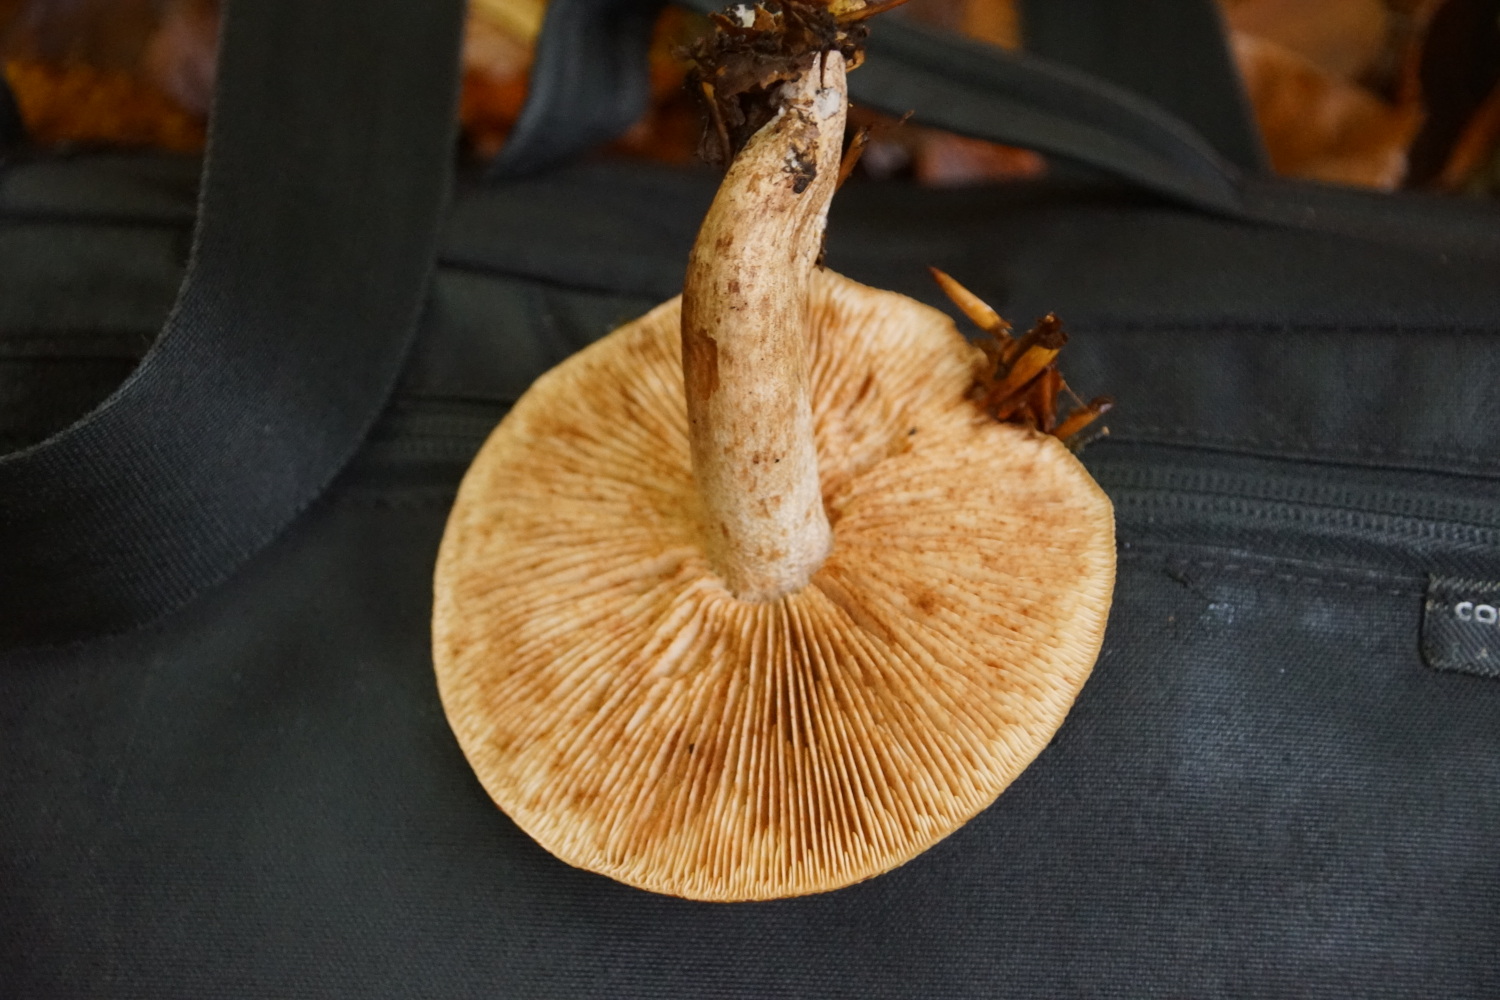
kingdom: Fungi
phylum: Basidiomycota
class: Agaricomycetes
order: Agaricales
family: Tricholomataceae
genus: Tricholoma
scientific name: Tricholoma ustale
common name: sveden ridderhat
